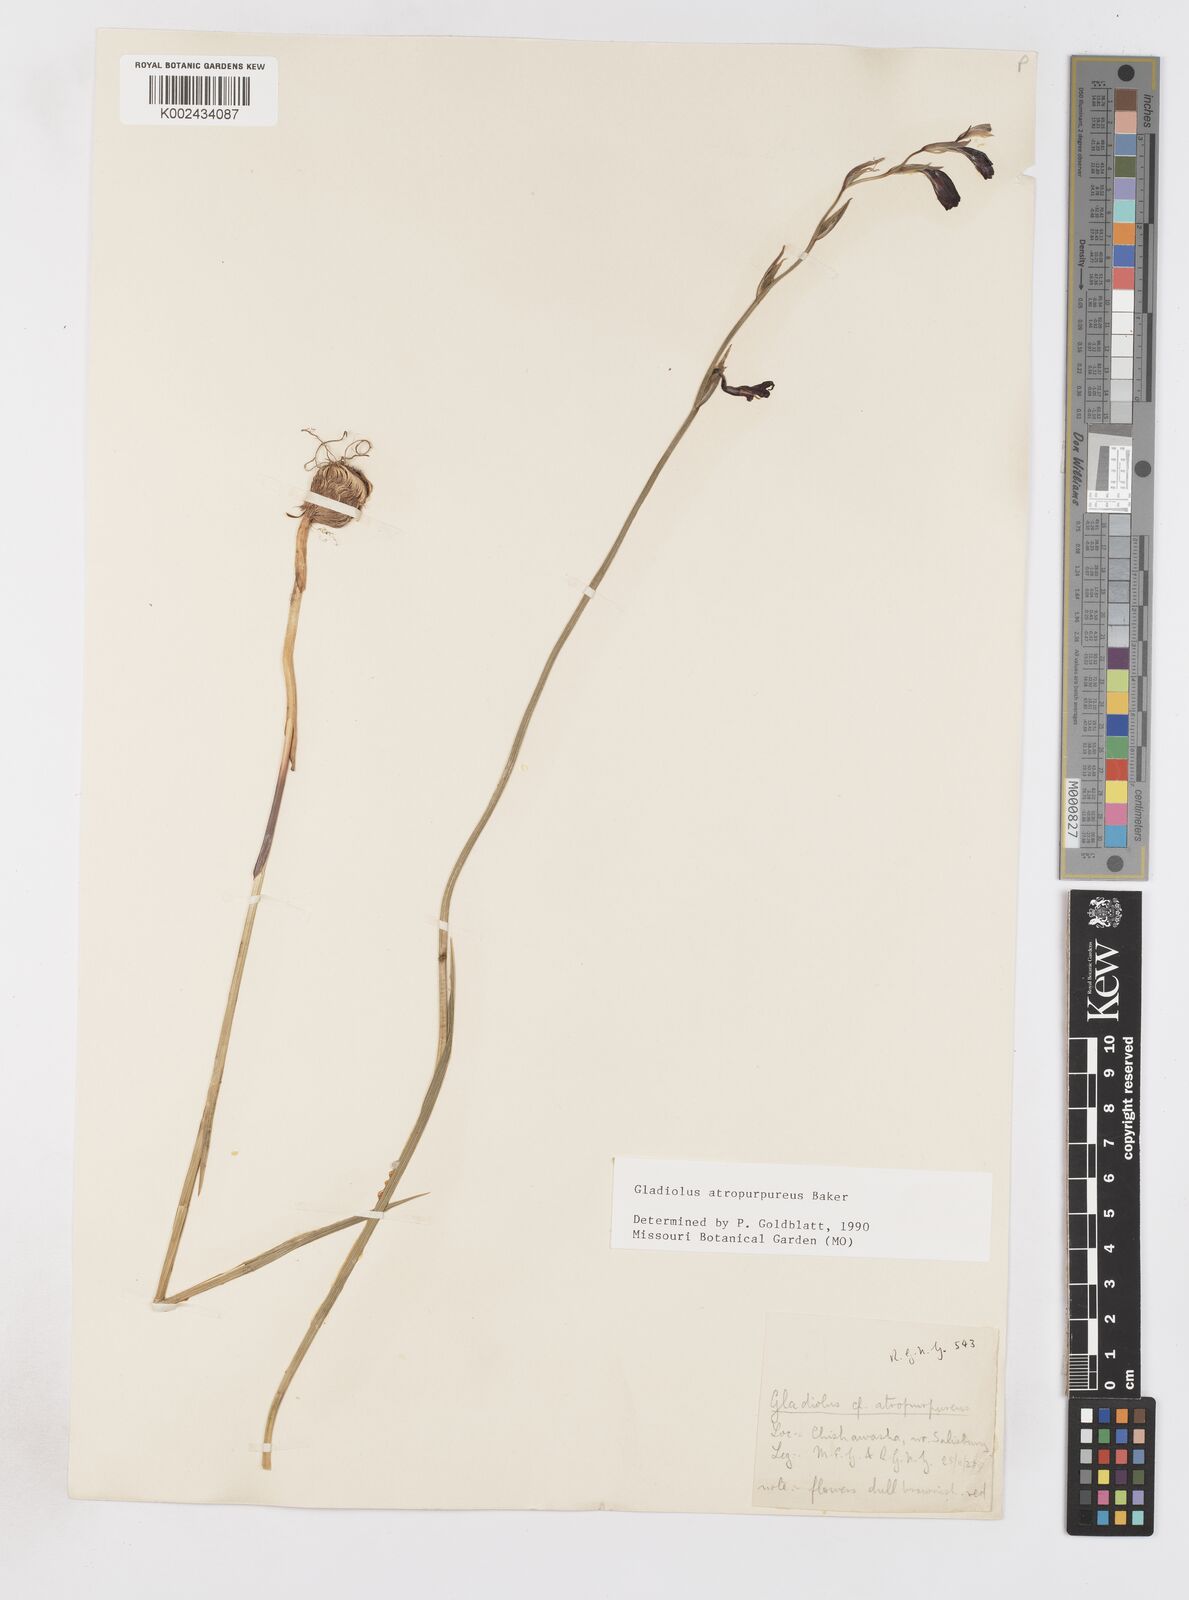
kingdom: Plantae
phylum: Tracheophyta
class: Liliopsida
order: Asparagales
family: Iridaceae
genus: Gladiolus
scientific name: Gladiolus atropurpureus
